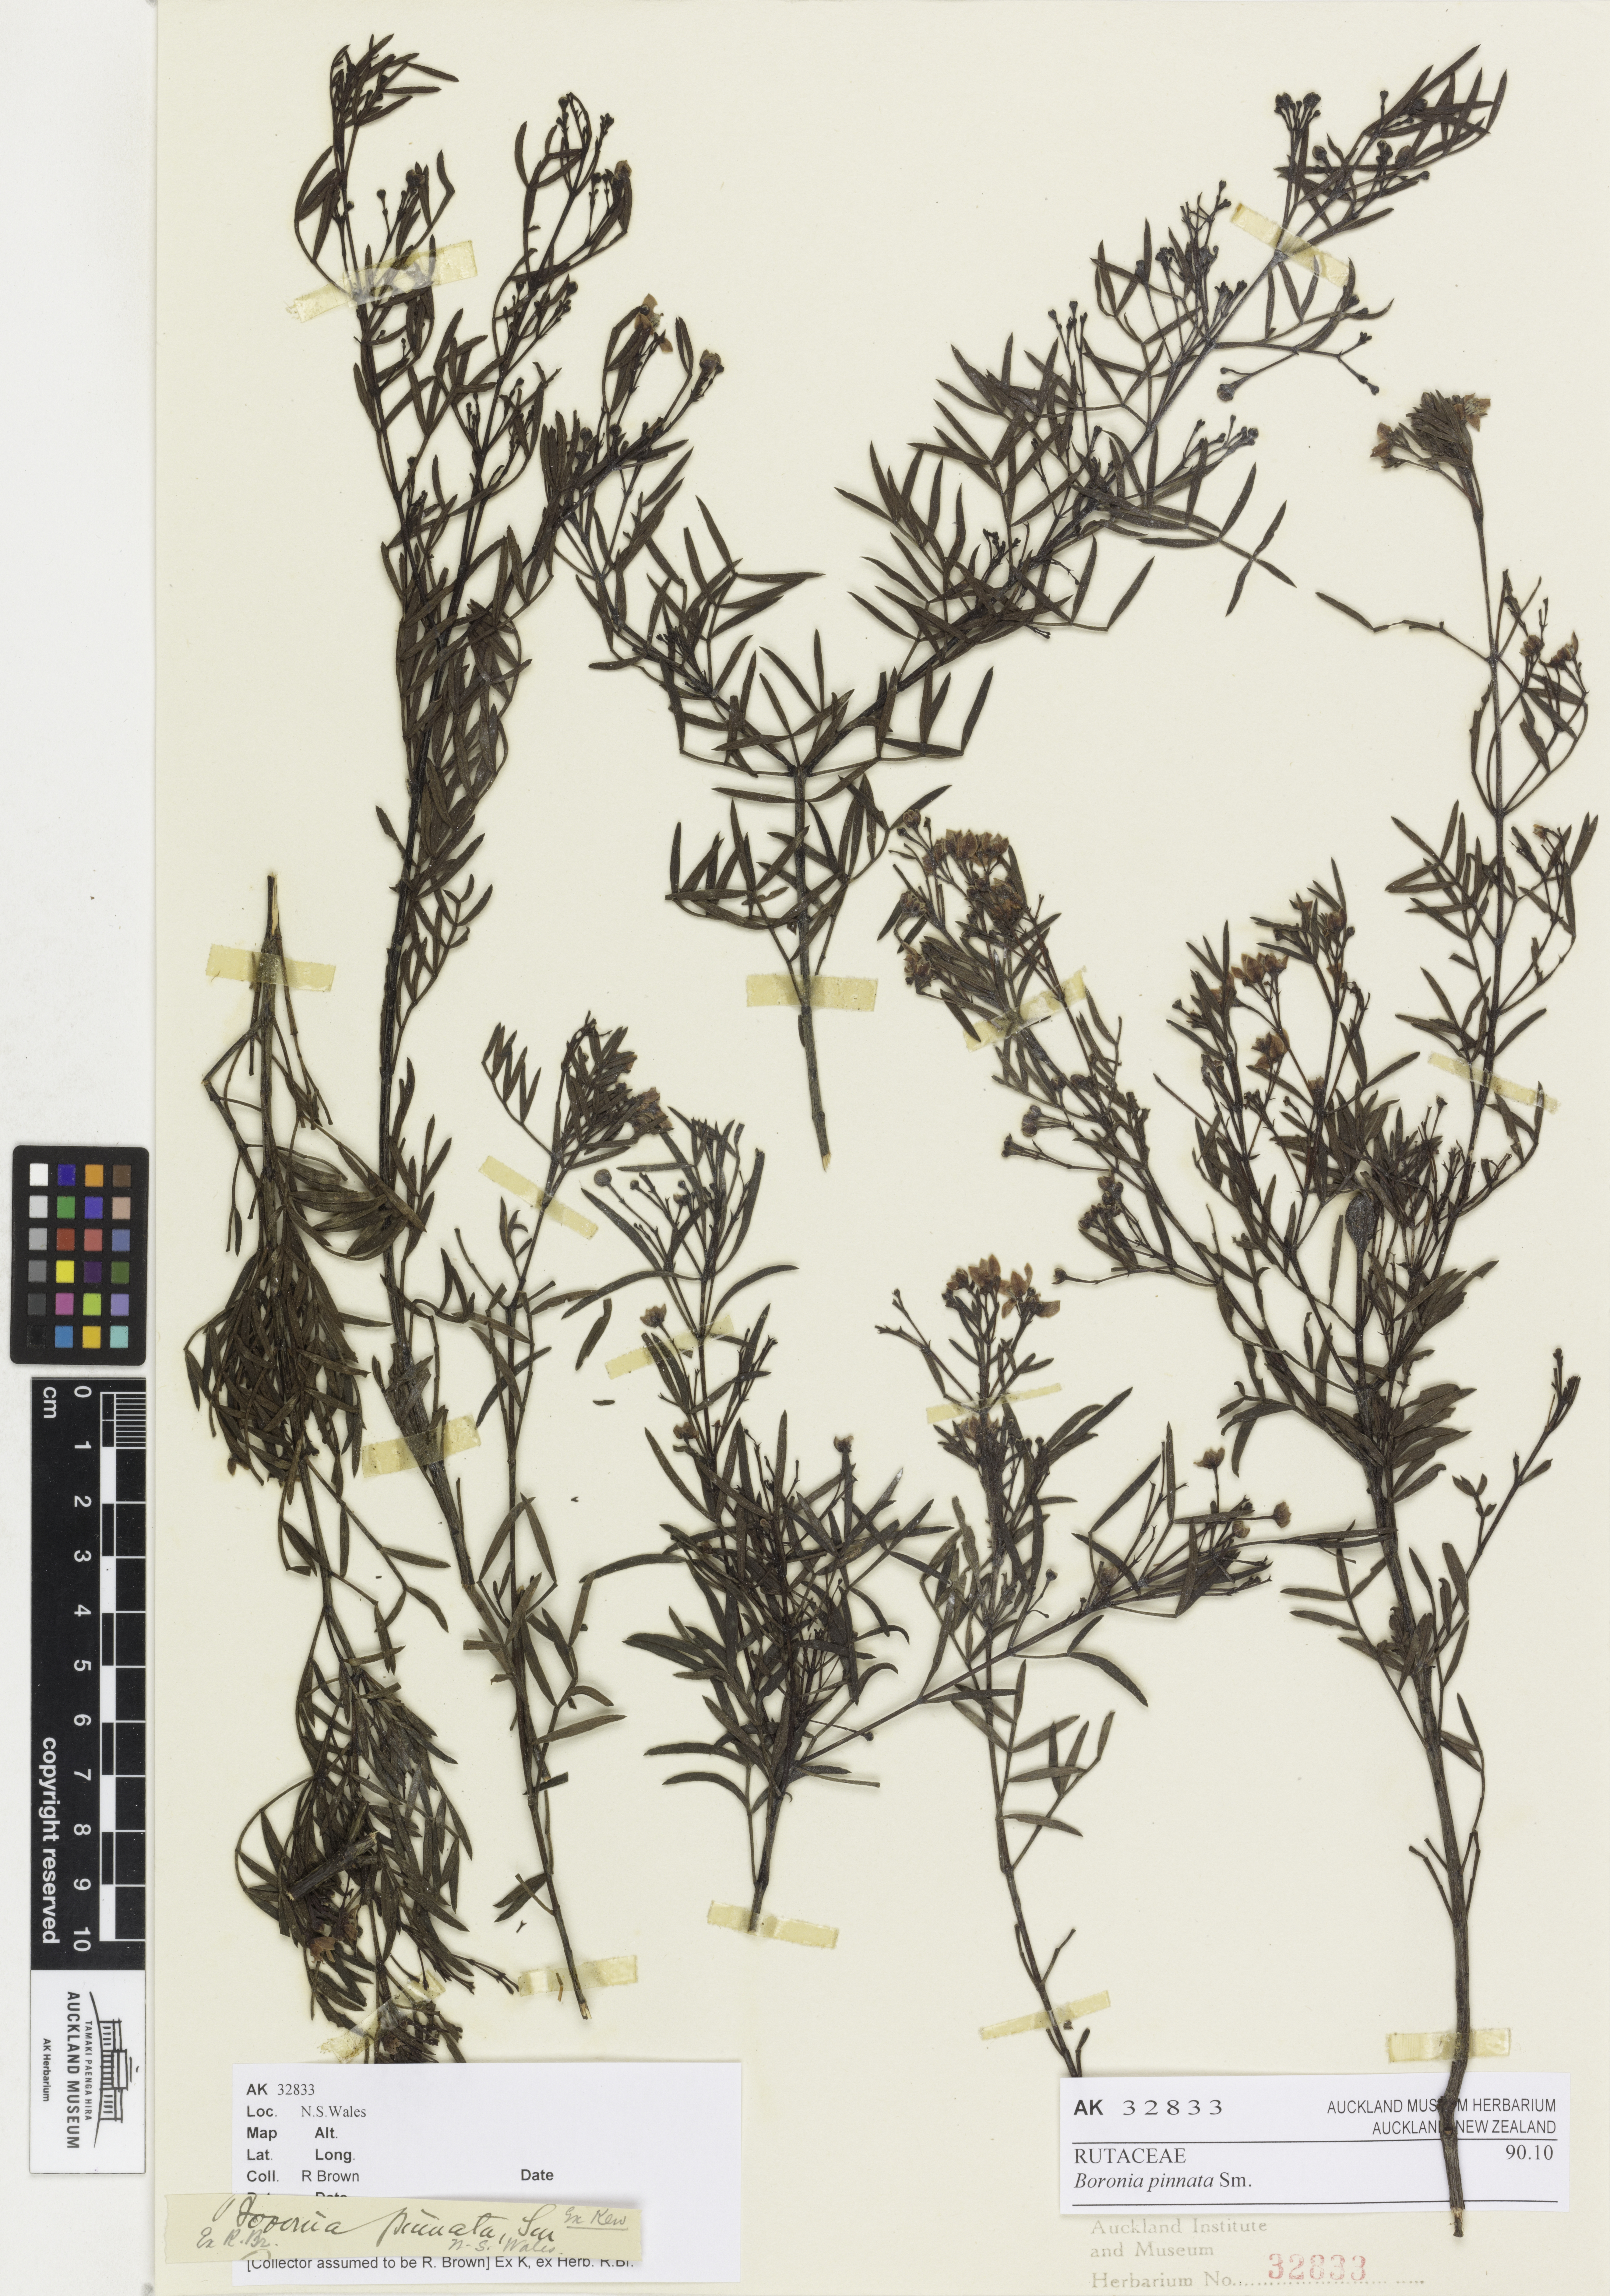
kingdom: Plantae
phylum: Tracheophyta
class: Magnoliopsida
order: Sapindales
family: Rutaceae
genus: Boronia
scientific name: Boronia pinnata
